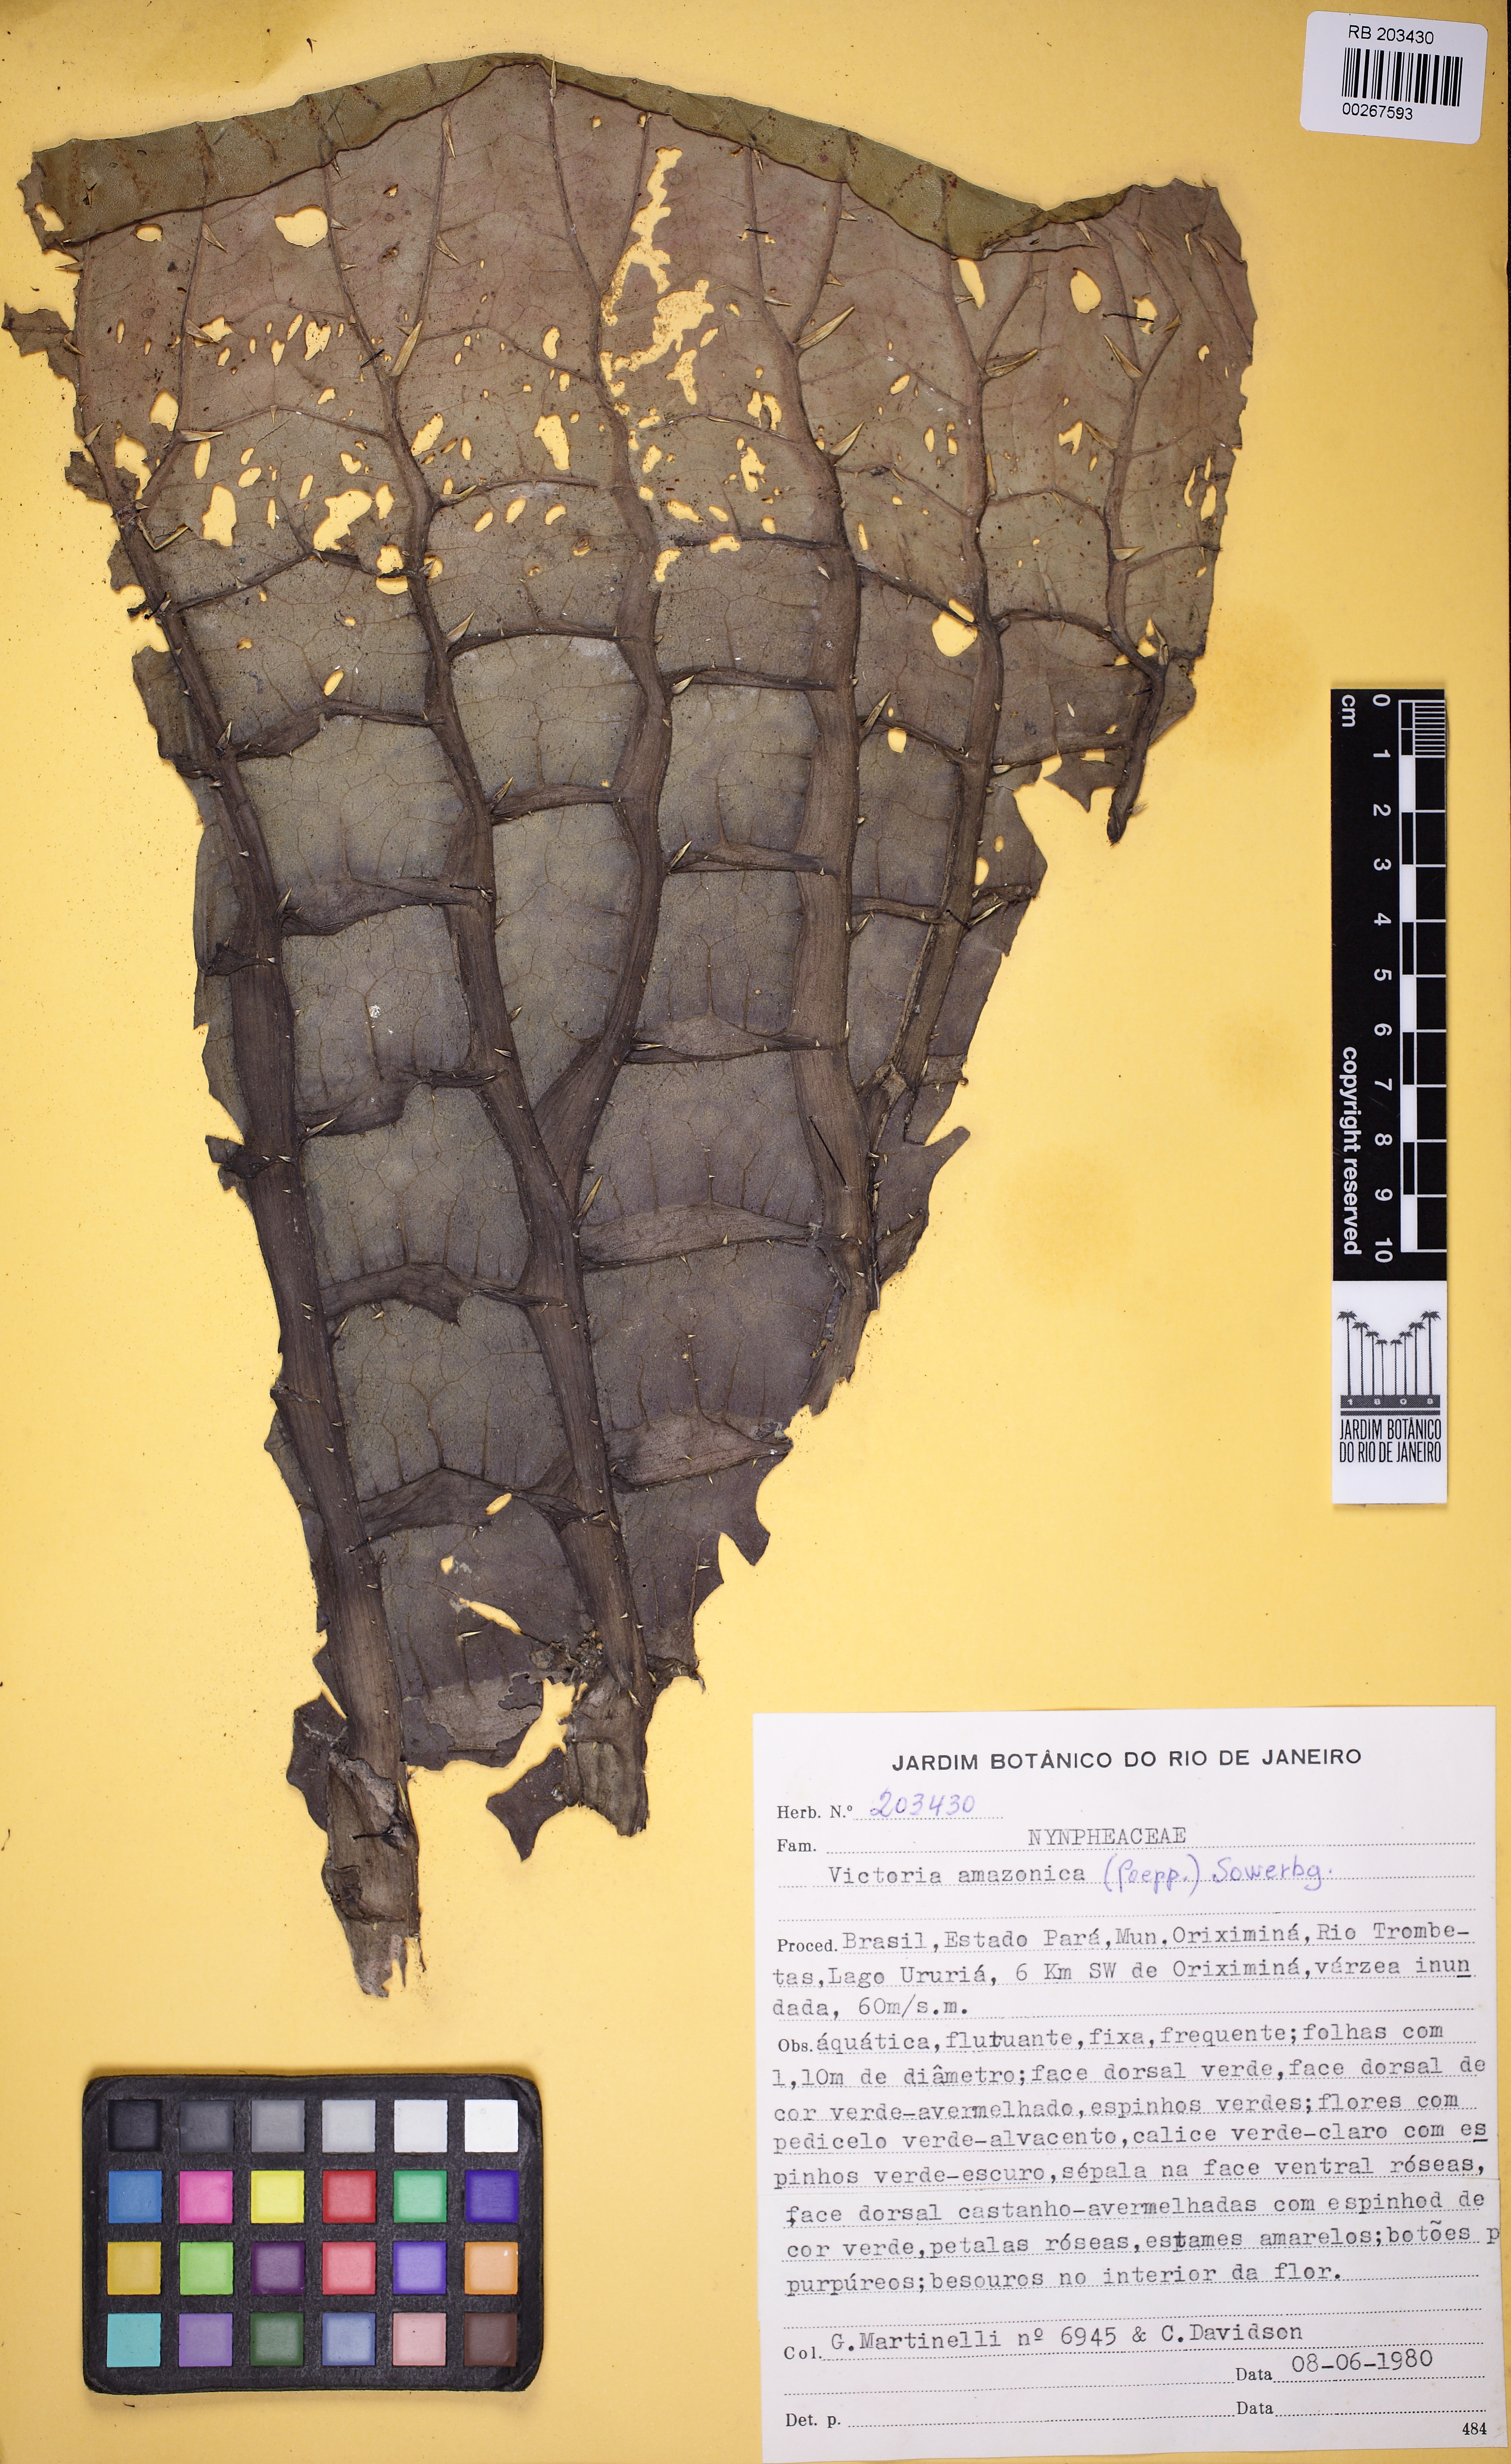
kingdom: Plantae
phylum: Tracheophyta
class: Magnoliopsida
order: Nymphaeales
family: Nymphaeaceae
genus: Victoria
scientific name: Victoria amazonica
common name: Amazon water-lily
